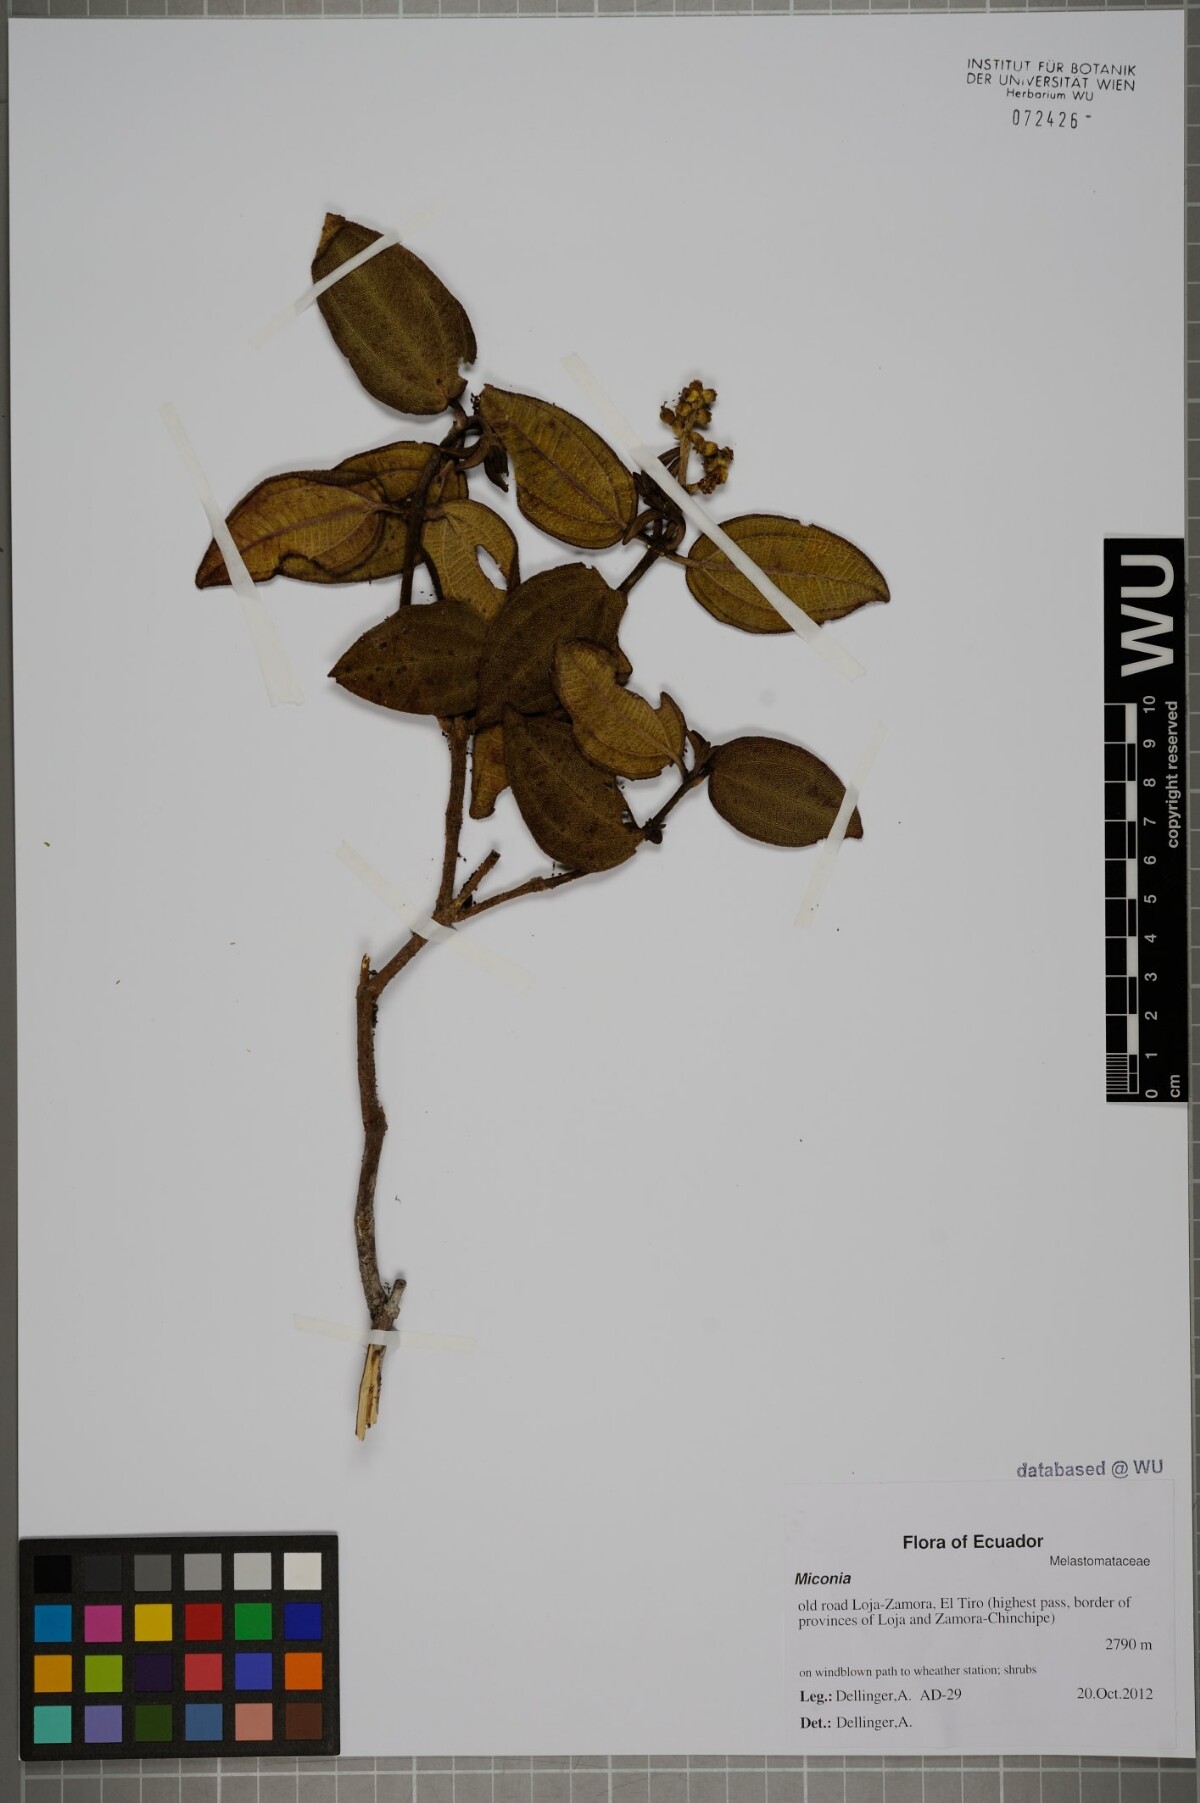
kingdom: Plantae
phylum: Tracheophyta
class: Magnoliopsida
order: Myrtales
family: Melastomataceae
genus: Miconia
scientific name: Miconia
